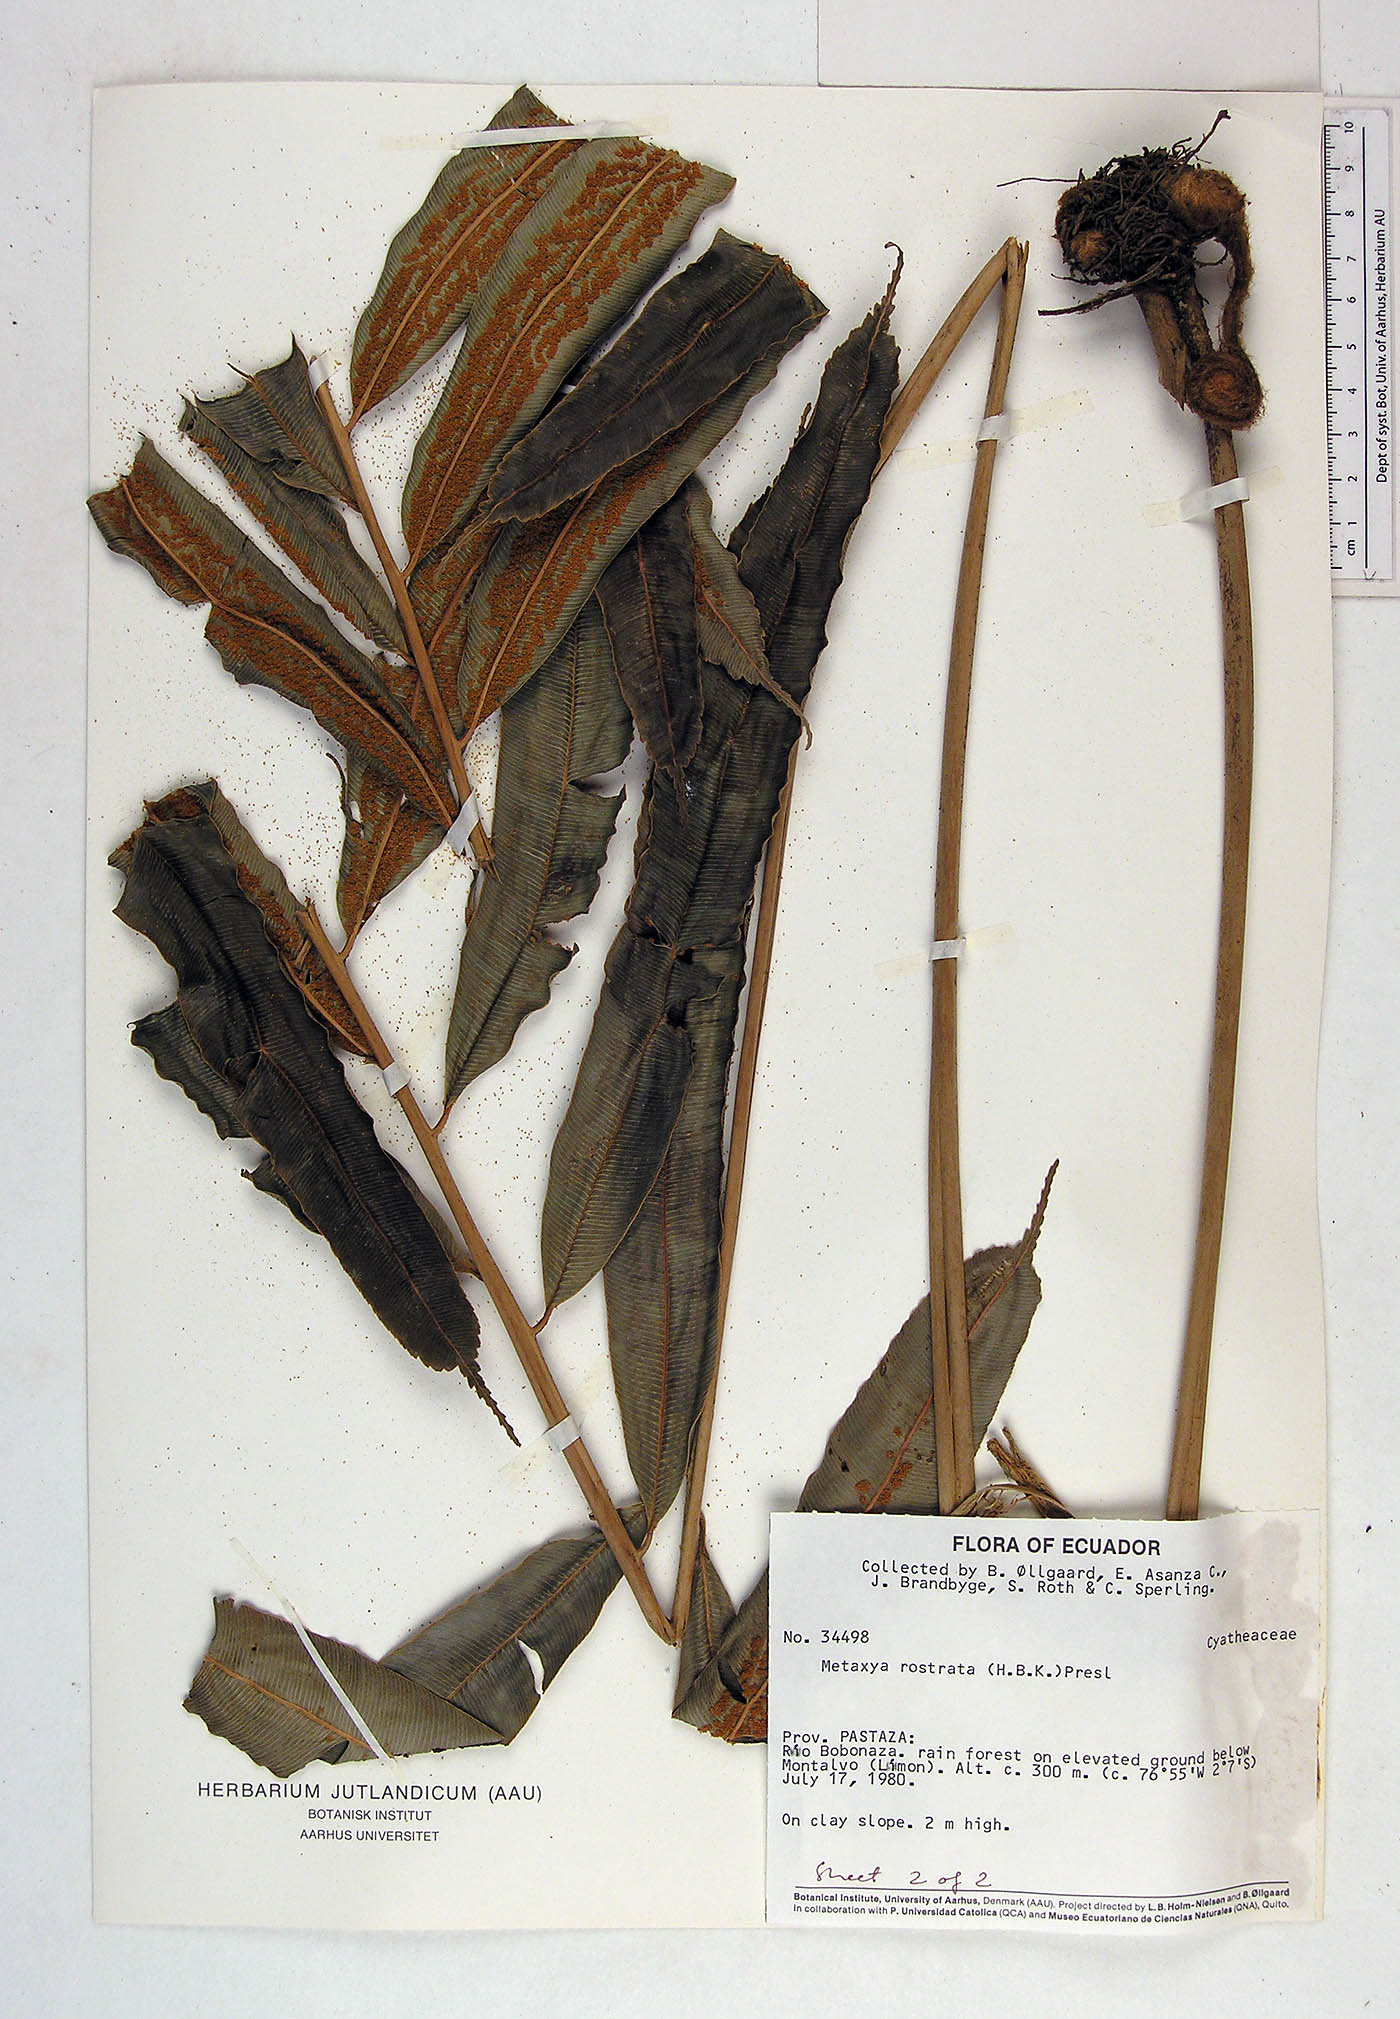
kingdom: Plantae
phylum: Tracheophyta
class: Polypodiopsida
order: Cyatheales
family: Metaxyaceae
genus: Metaxya
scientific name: Metaxya parkeri
